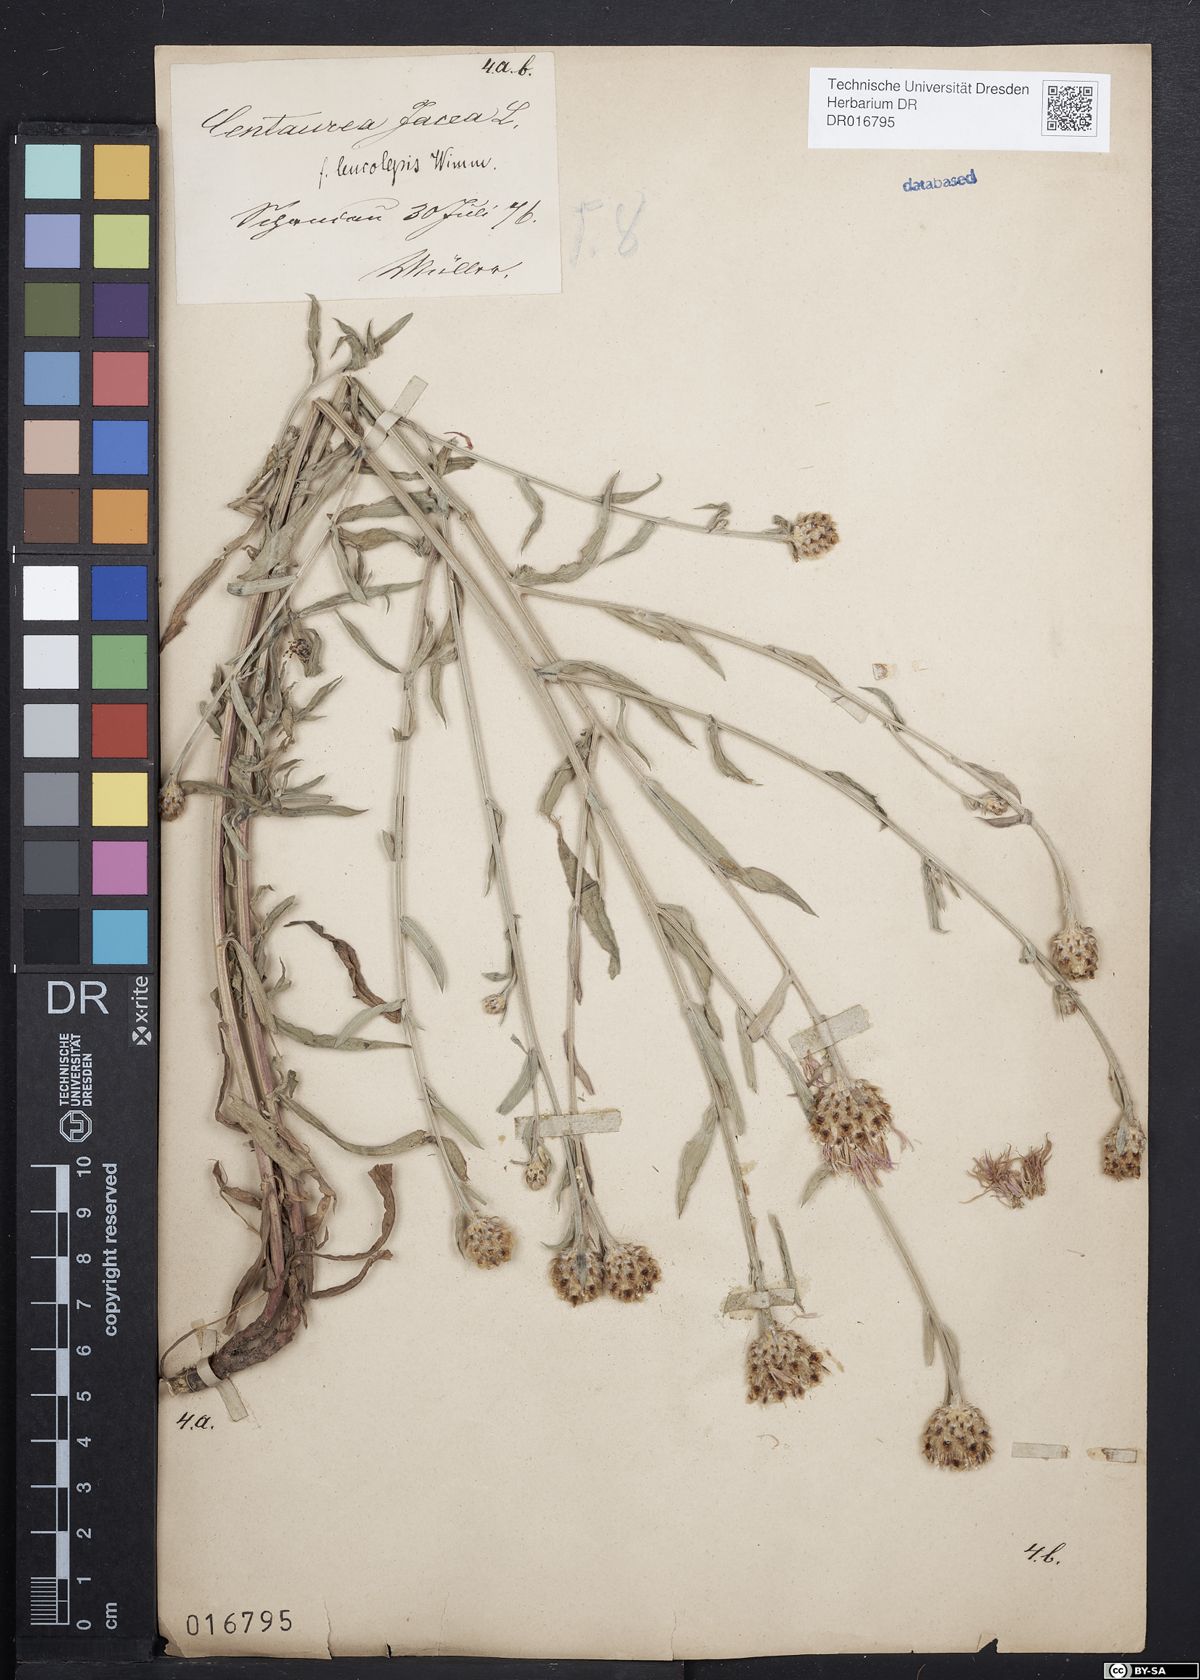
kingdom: Plantae
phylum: Tracheophyta
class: Magnoliopsida
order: Asterales
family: Asteraceae
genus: Centaurea
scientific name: Centaurea jacea
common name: Brown knapweed
